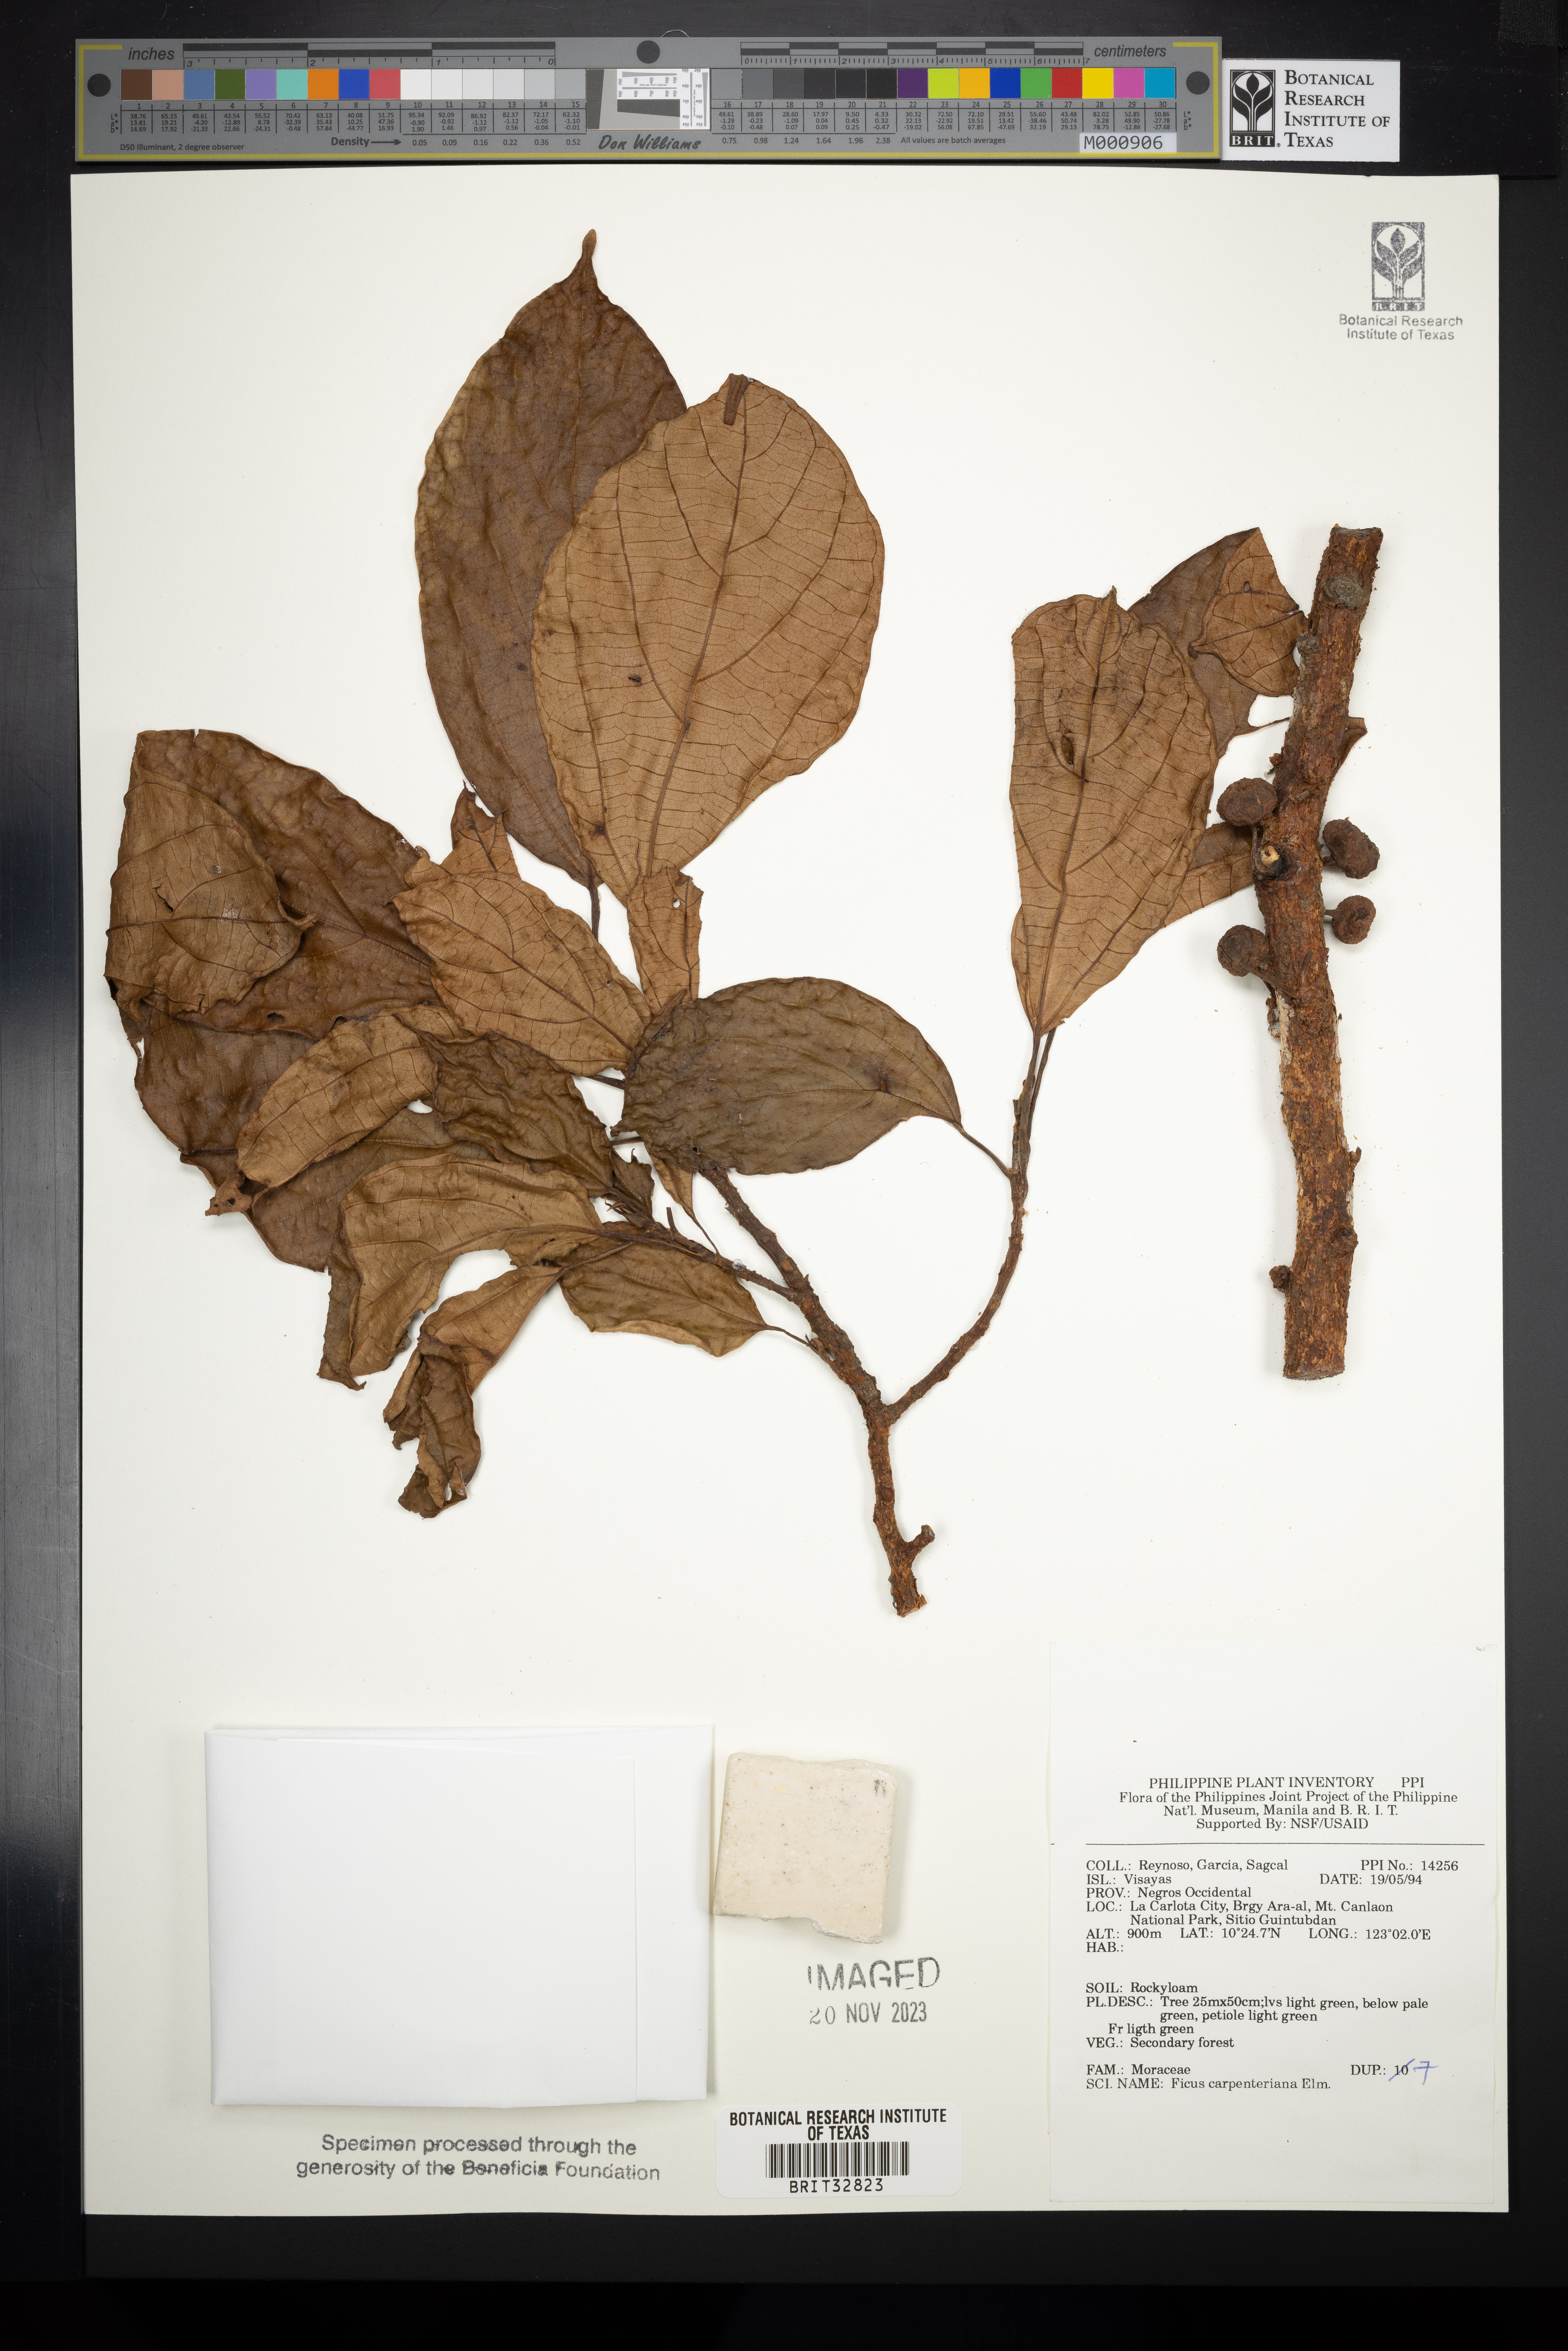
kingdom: Plantae
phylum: Tracheophyta
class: Magnoliopsida
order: Rosales
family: Moraceae
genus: Ficus
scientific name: Ficus carpenteriana
